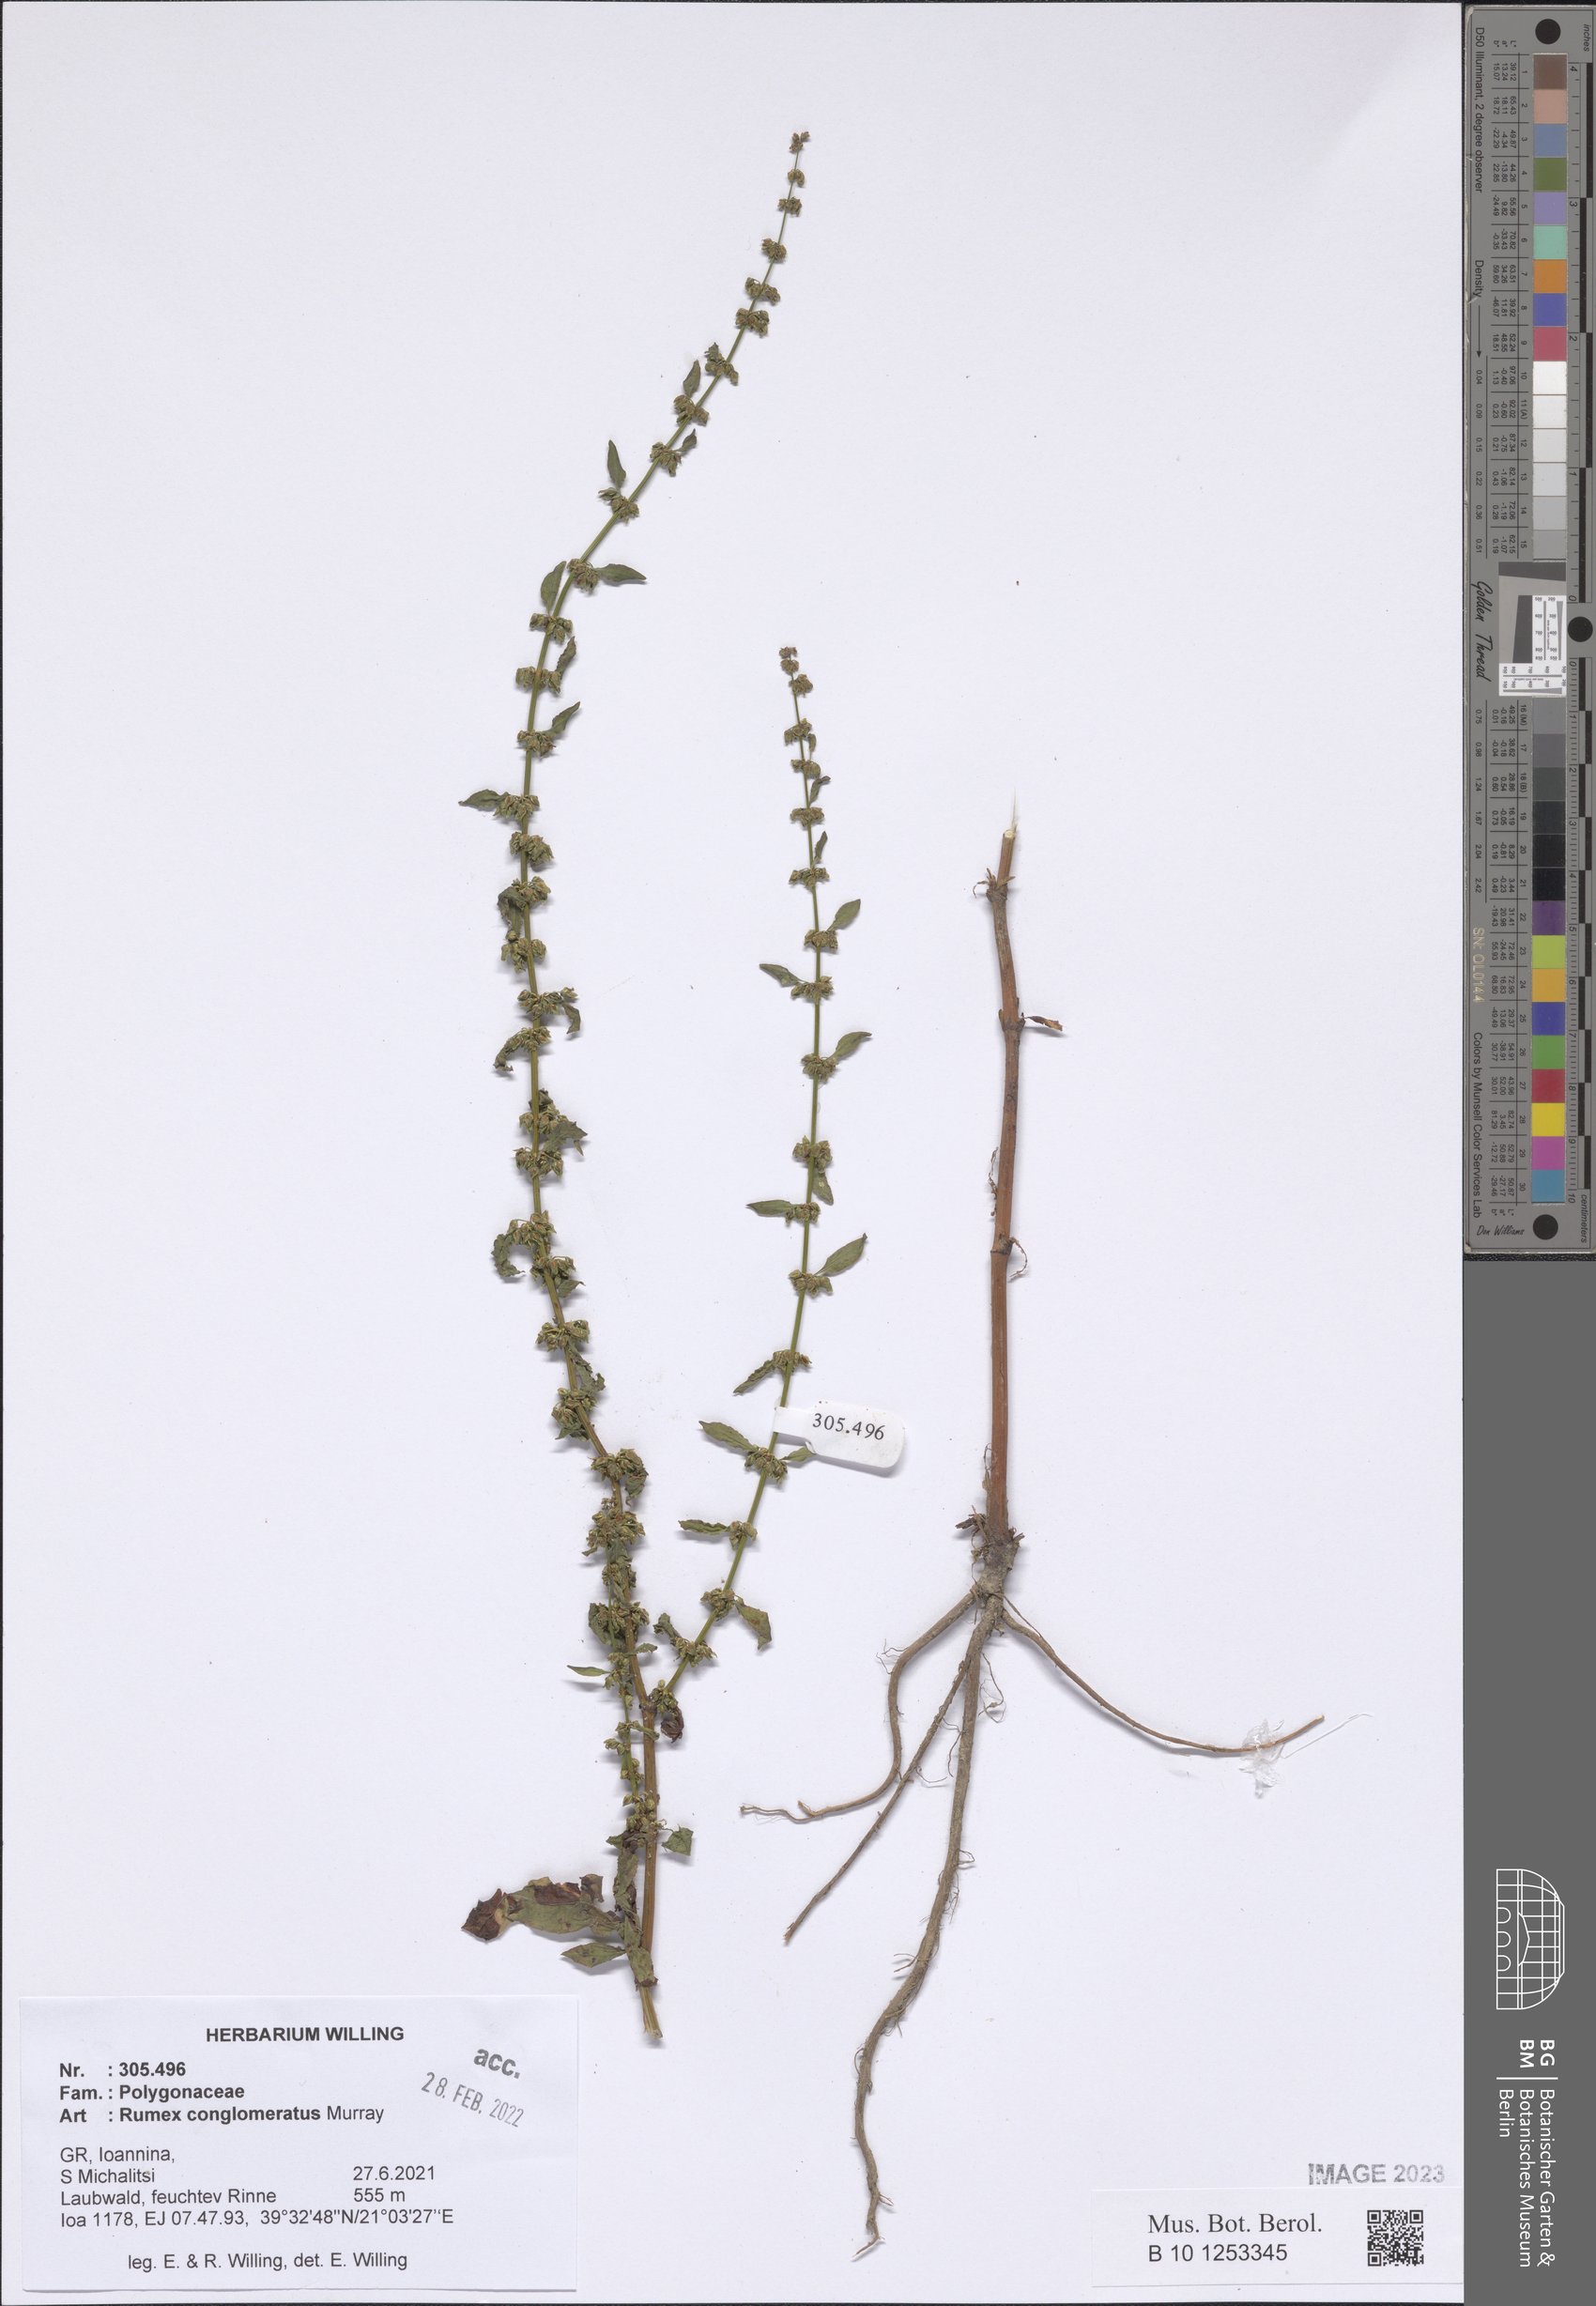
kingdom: Plantae
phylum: Tracheophyta
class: Magnoliopsida
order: Caryophyllales
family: Polygonaceae
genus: Rumex
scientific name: Rumex conglomeratus
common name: Clustered dock
